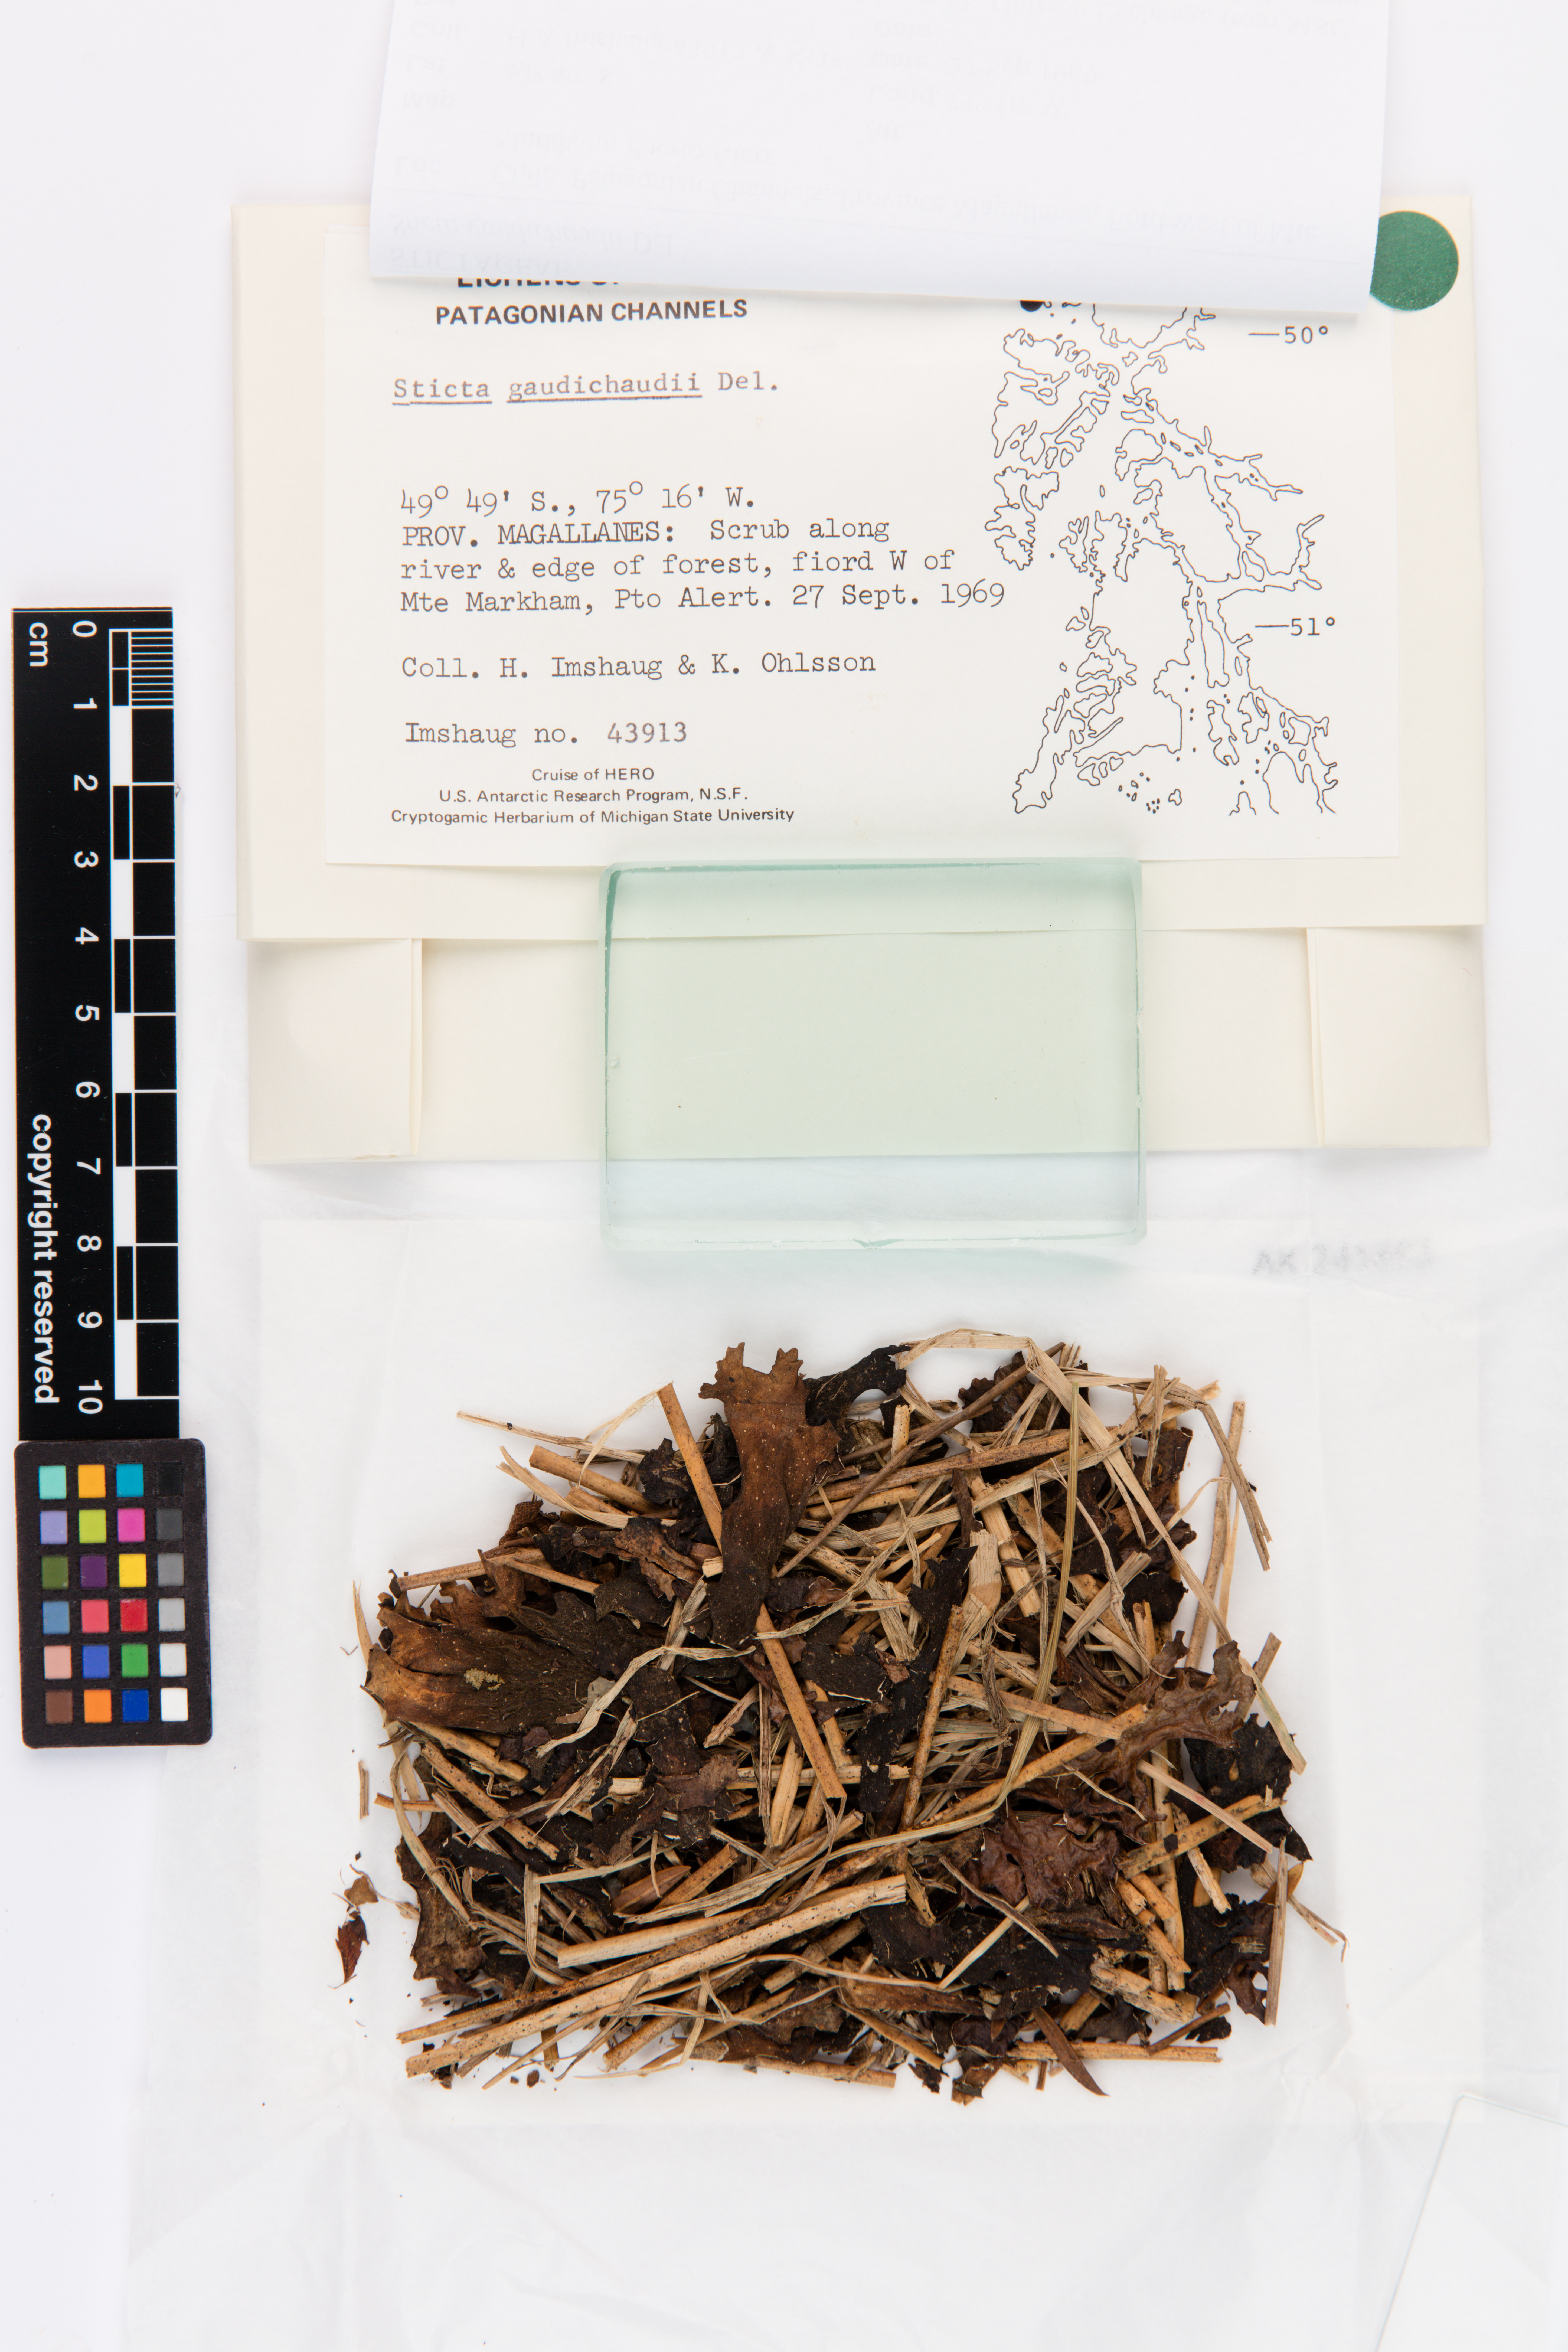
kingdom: Fungi
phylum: Ascomycota
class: Lecanoromycetes
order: Peltigerales
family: Lobariaceae
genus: Sticta
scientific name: Sticta gaudichaudii
